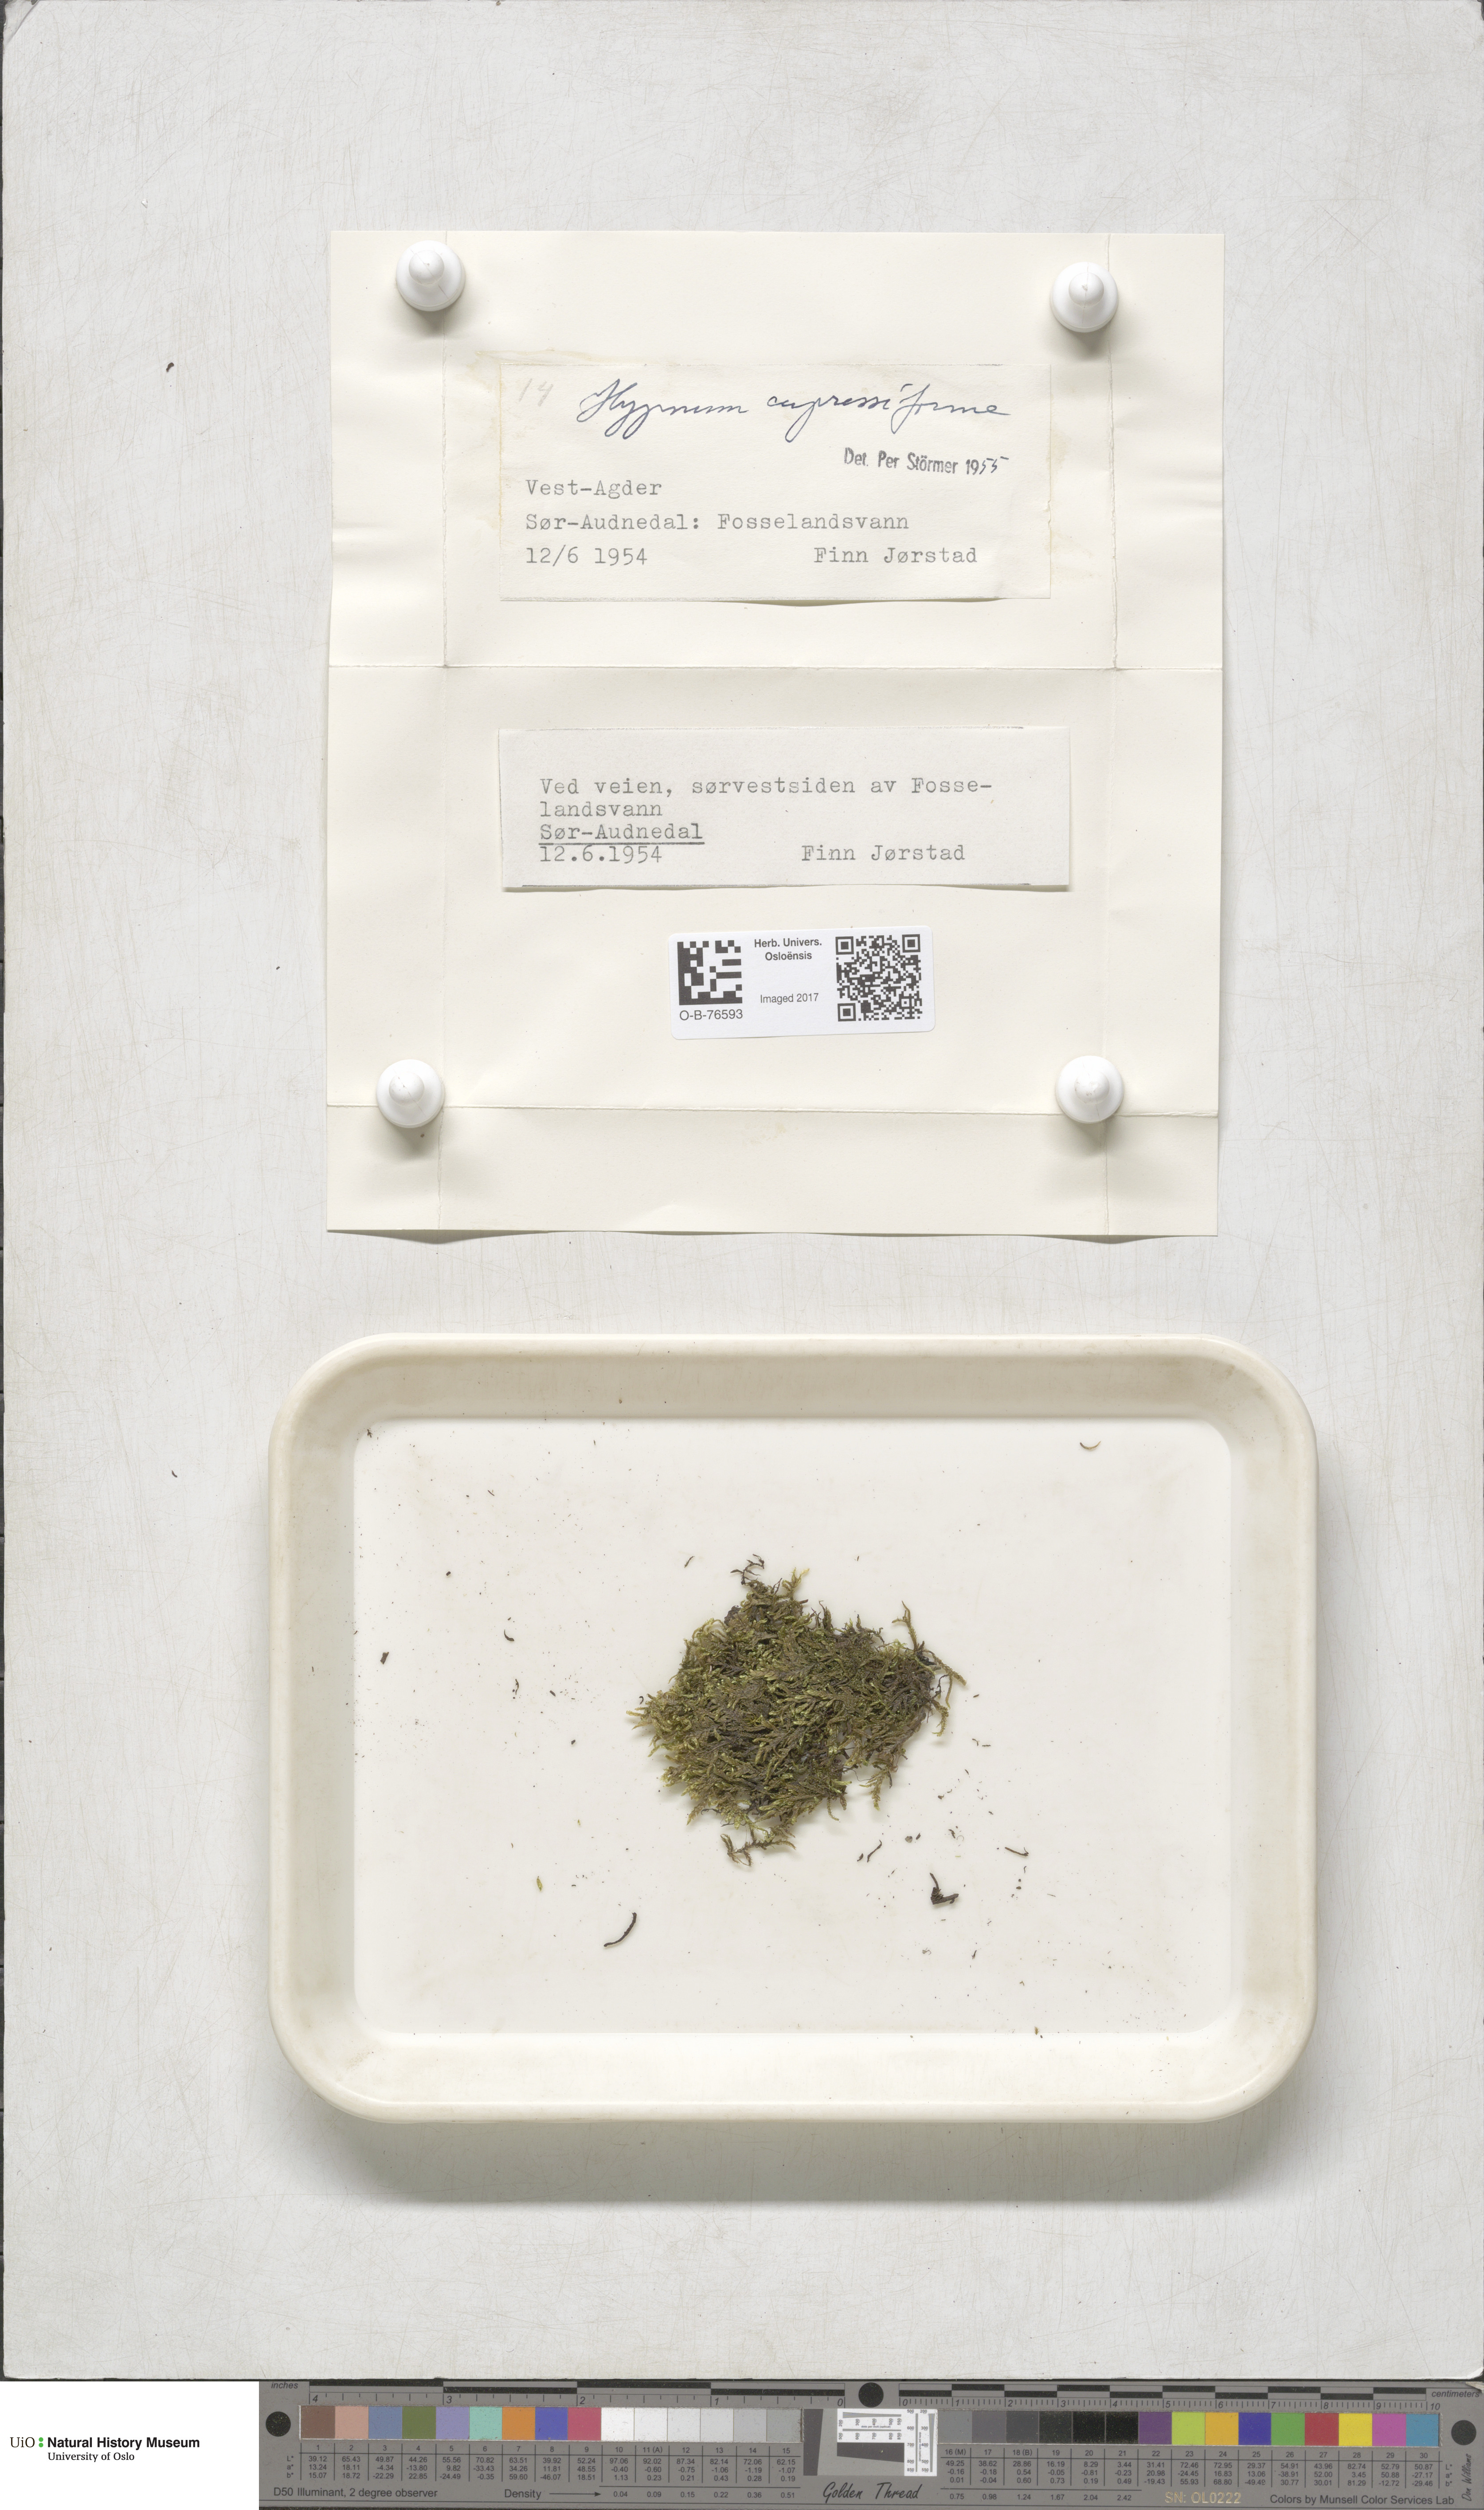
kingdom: Plantae
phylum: Bryophyta
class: Bryopsida
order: Hypnales
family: Hypnaceae
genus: Hypnum
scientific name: Hypnum cupressiforme
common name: Cypress-leaved plait-moss
